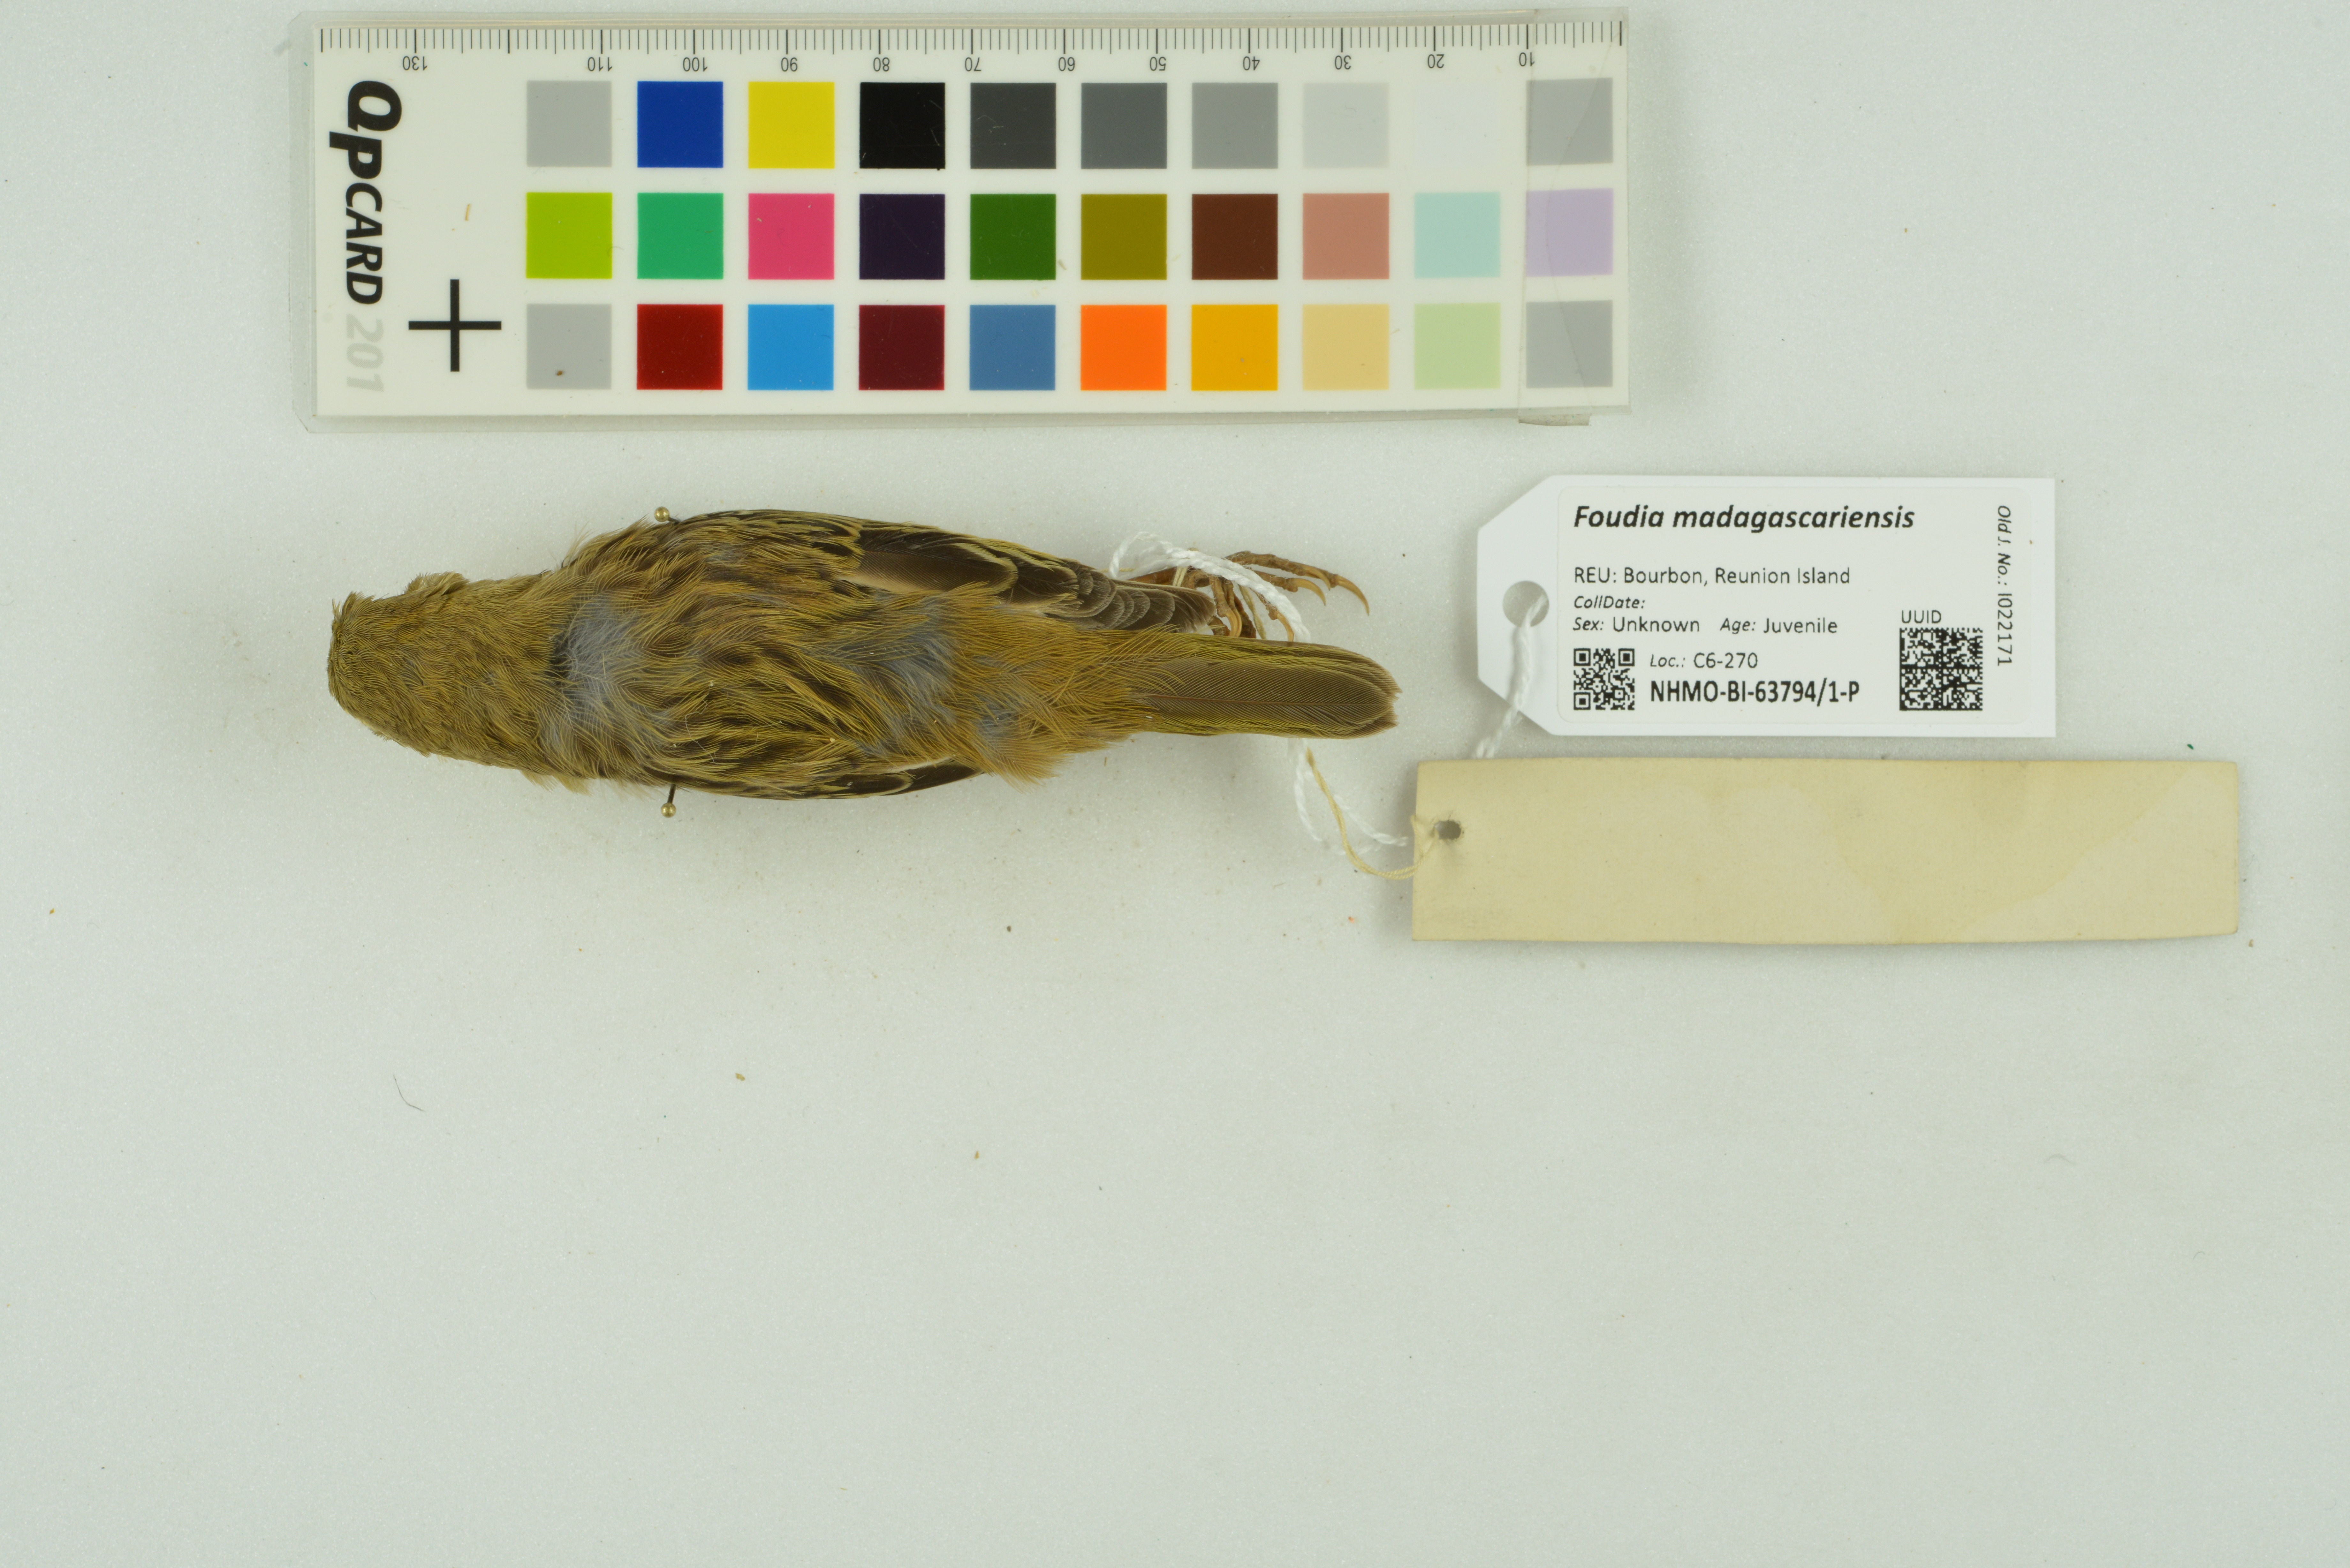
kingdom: Animalia
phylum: Chordata
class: Aves
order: Passeriformes
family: Ploceidae
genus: Foudia
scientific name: Foudia madagascariensis
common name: Red fody
